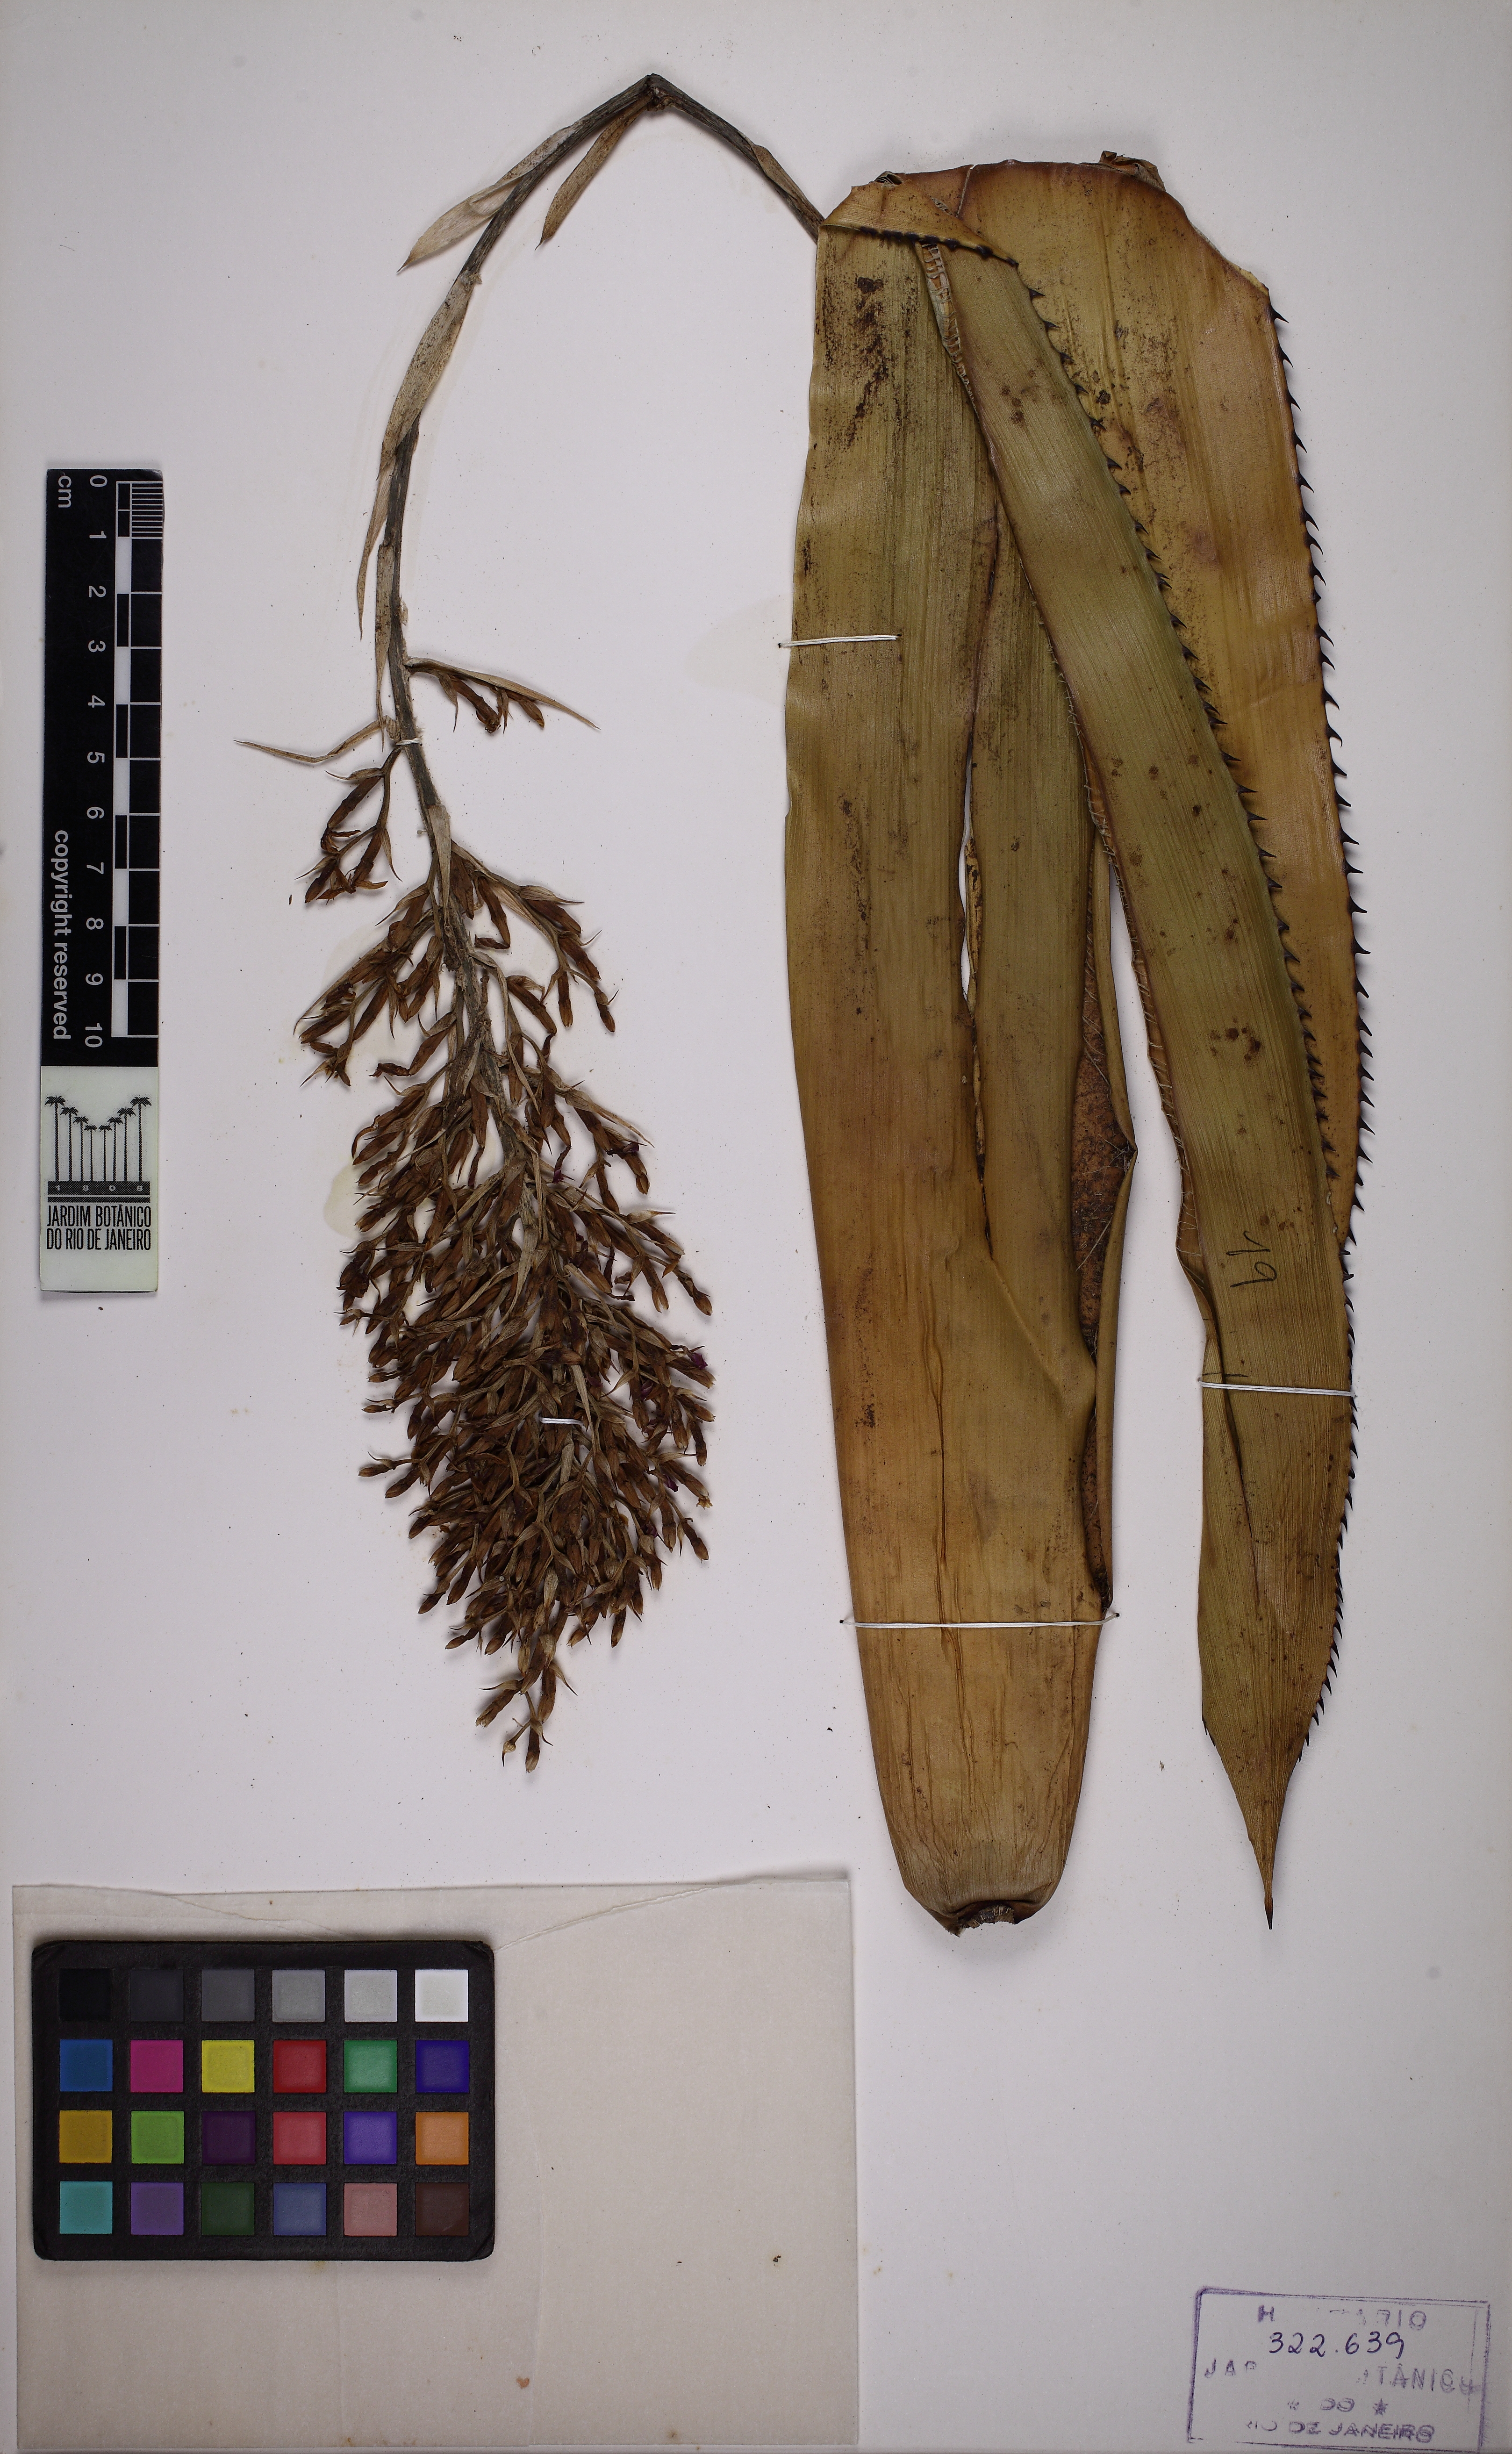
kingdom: Plantae
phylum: Tracheophyta
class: Liliopsida
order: Poales
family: Bromeliaceae
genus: Aechmea
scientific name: Aechmea purpureorosea
